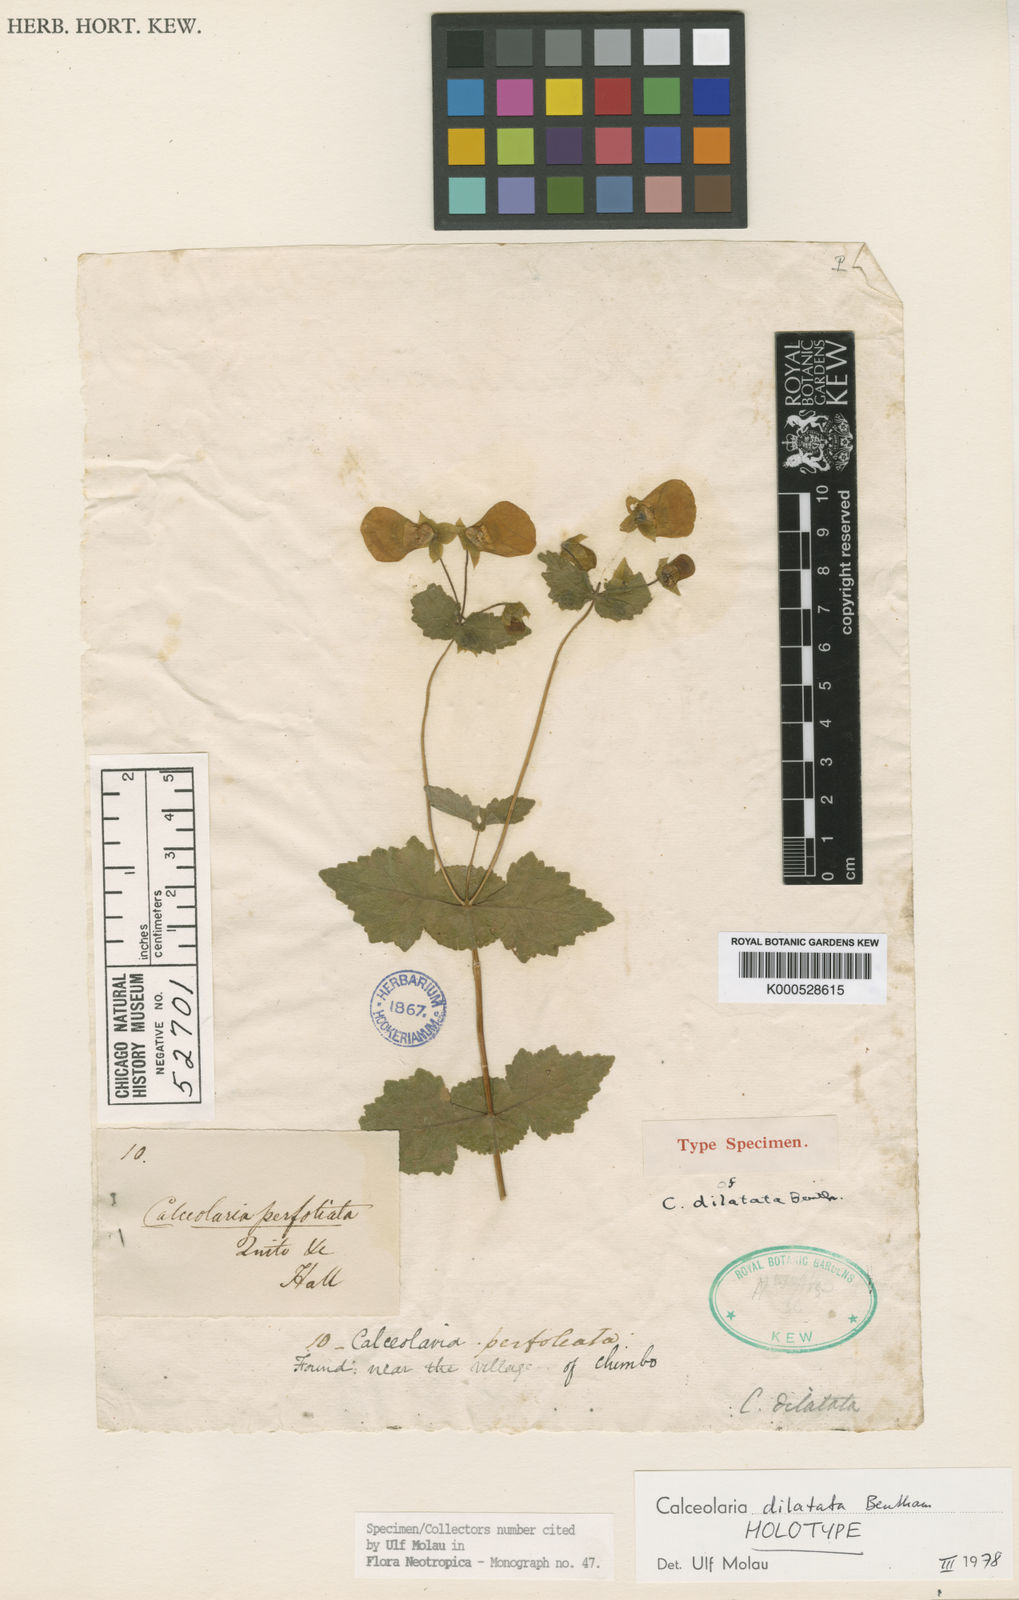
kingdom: Plantae
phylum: Tracheophyta
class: Magnoliopsida
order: Lamiales
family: Calceolariaceae
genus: Calceolaria
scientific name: Calceolaria dilatata
